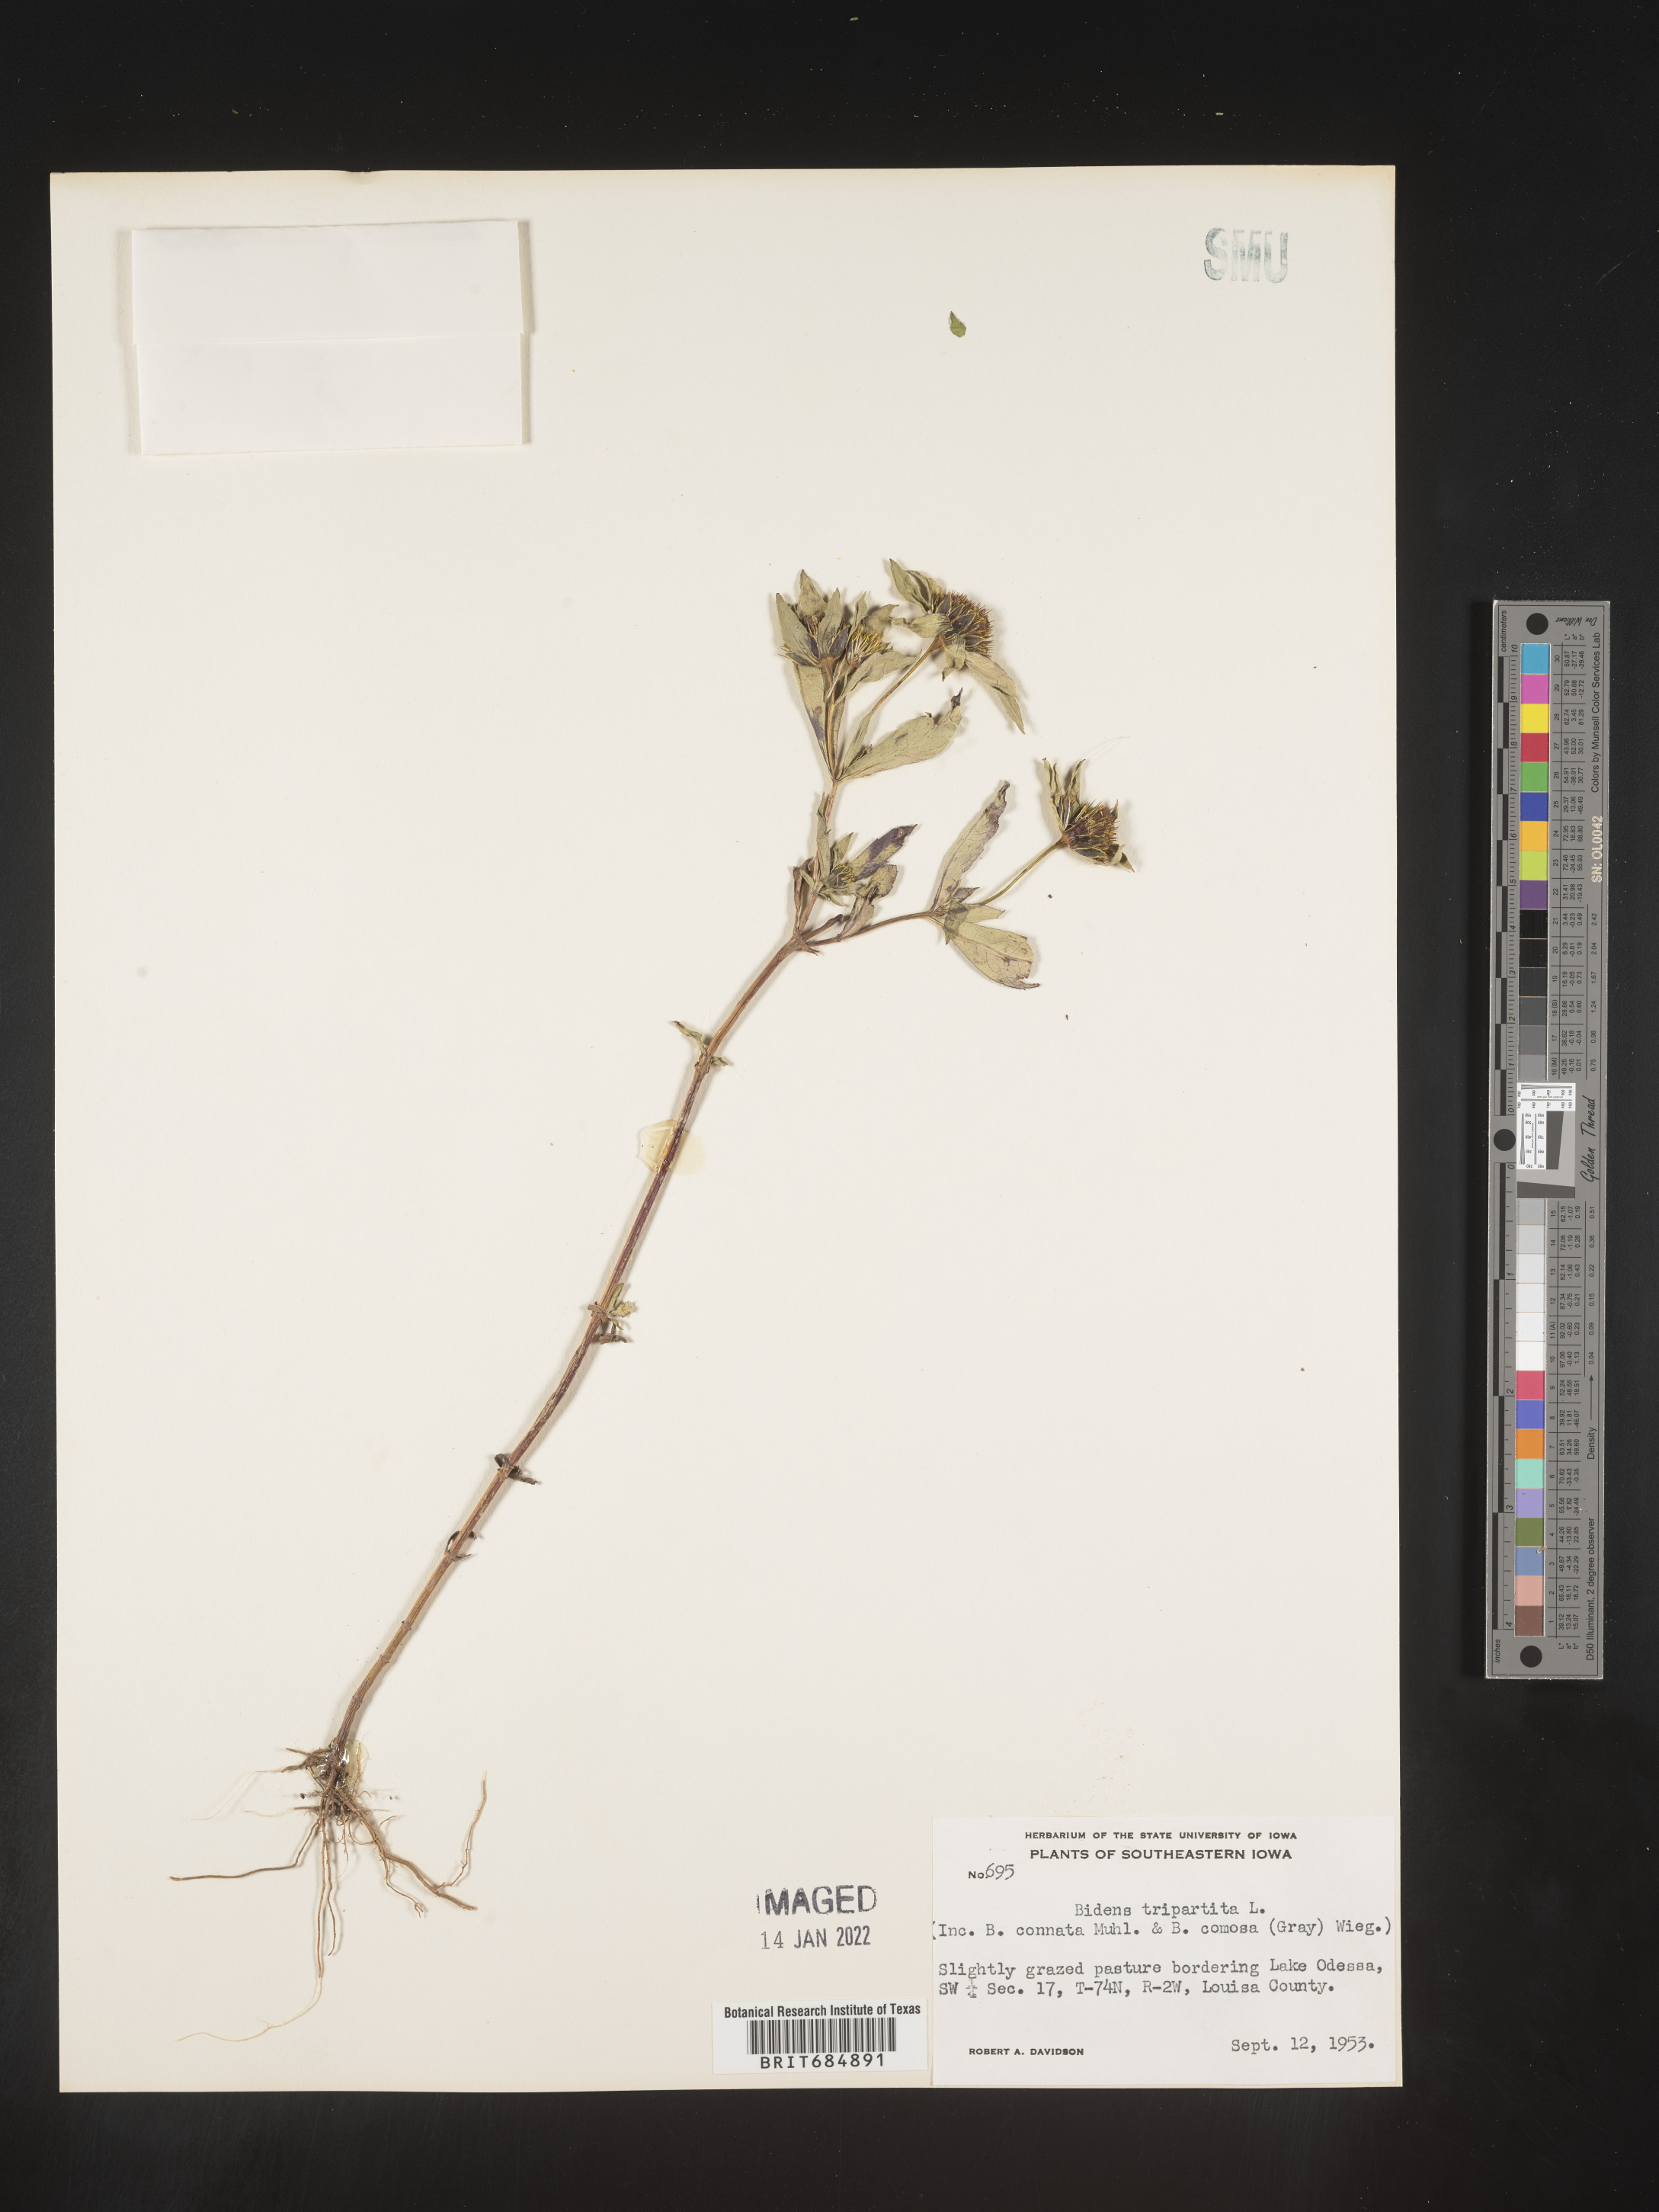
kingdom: Plantae
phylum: Tracheophyta
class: Magnoliopsida
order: Asterales
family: Asteraceae
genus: Bidens
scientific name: Bidens tripartita
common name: Trifid bur-marigold
